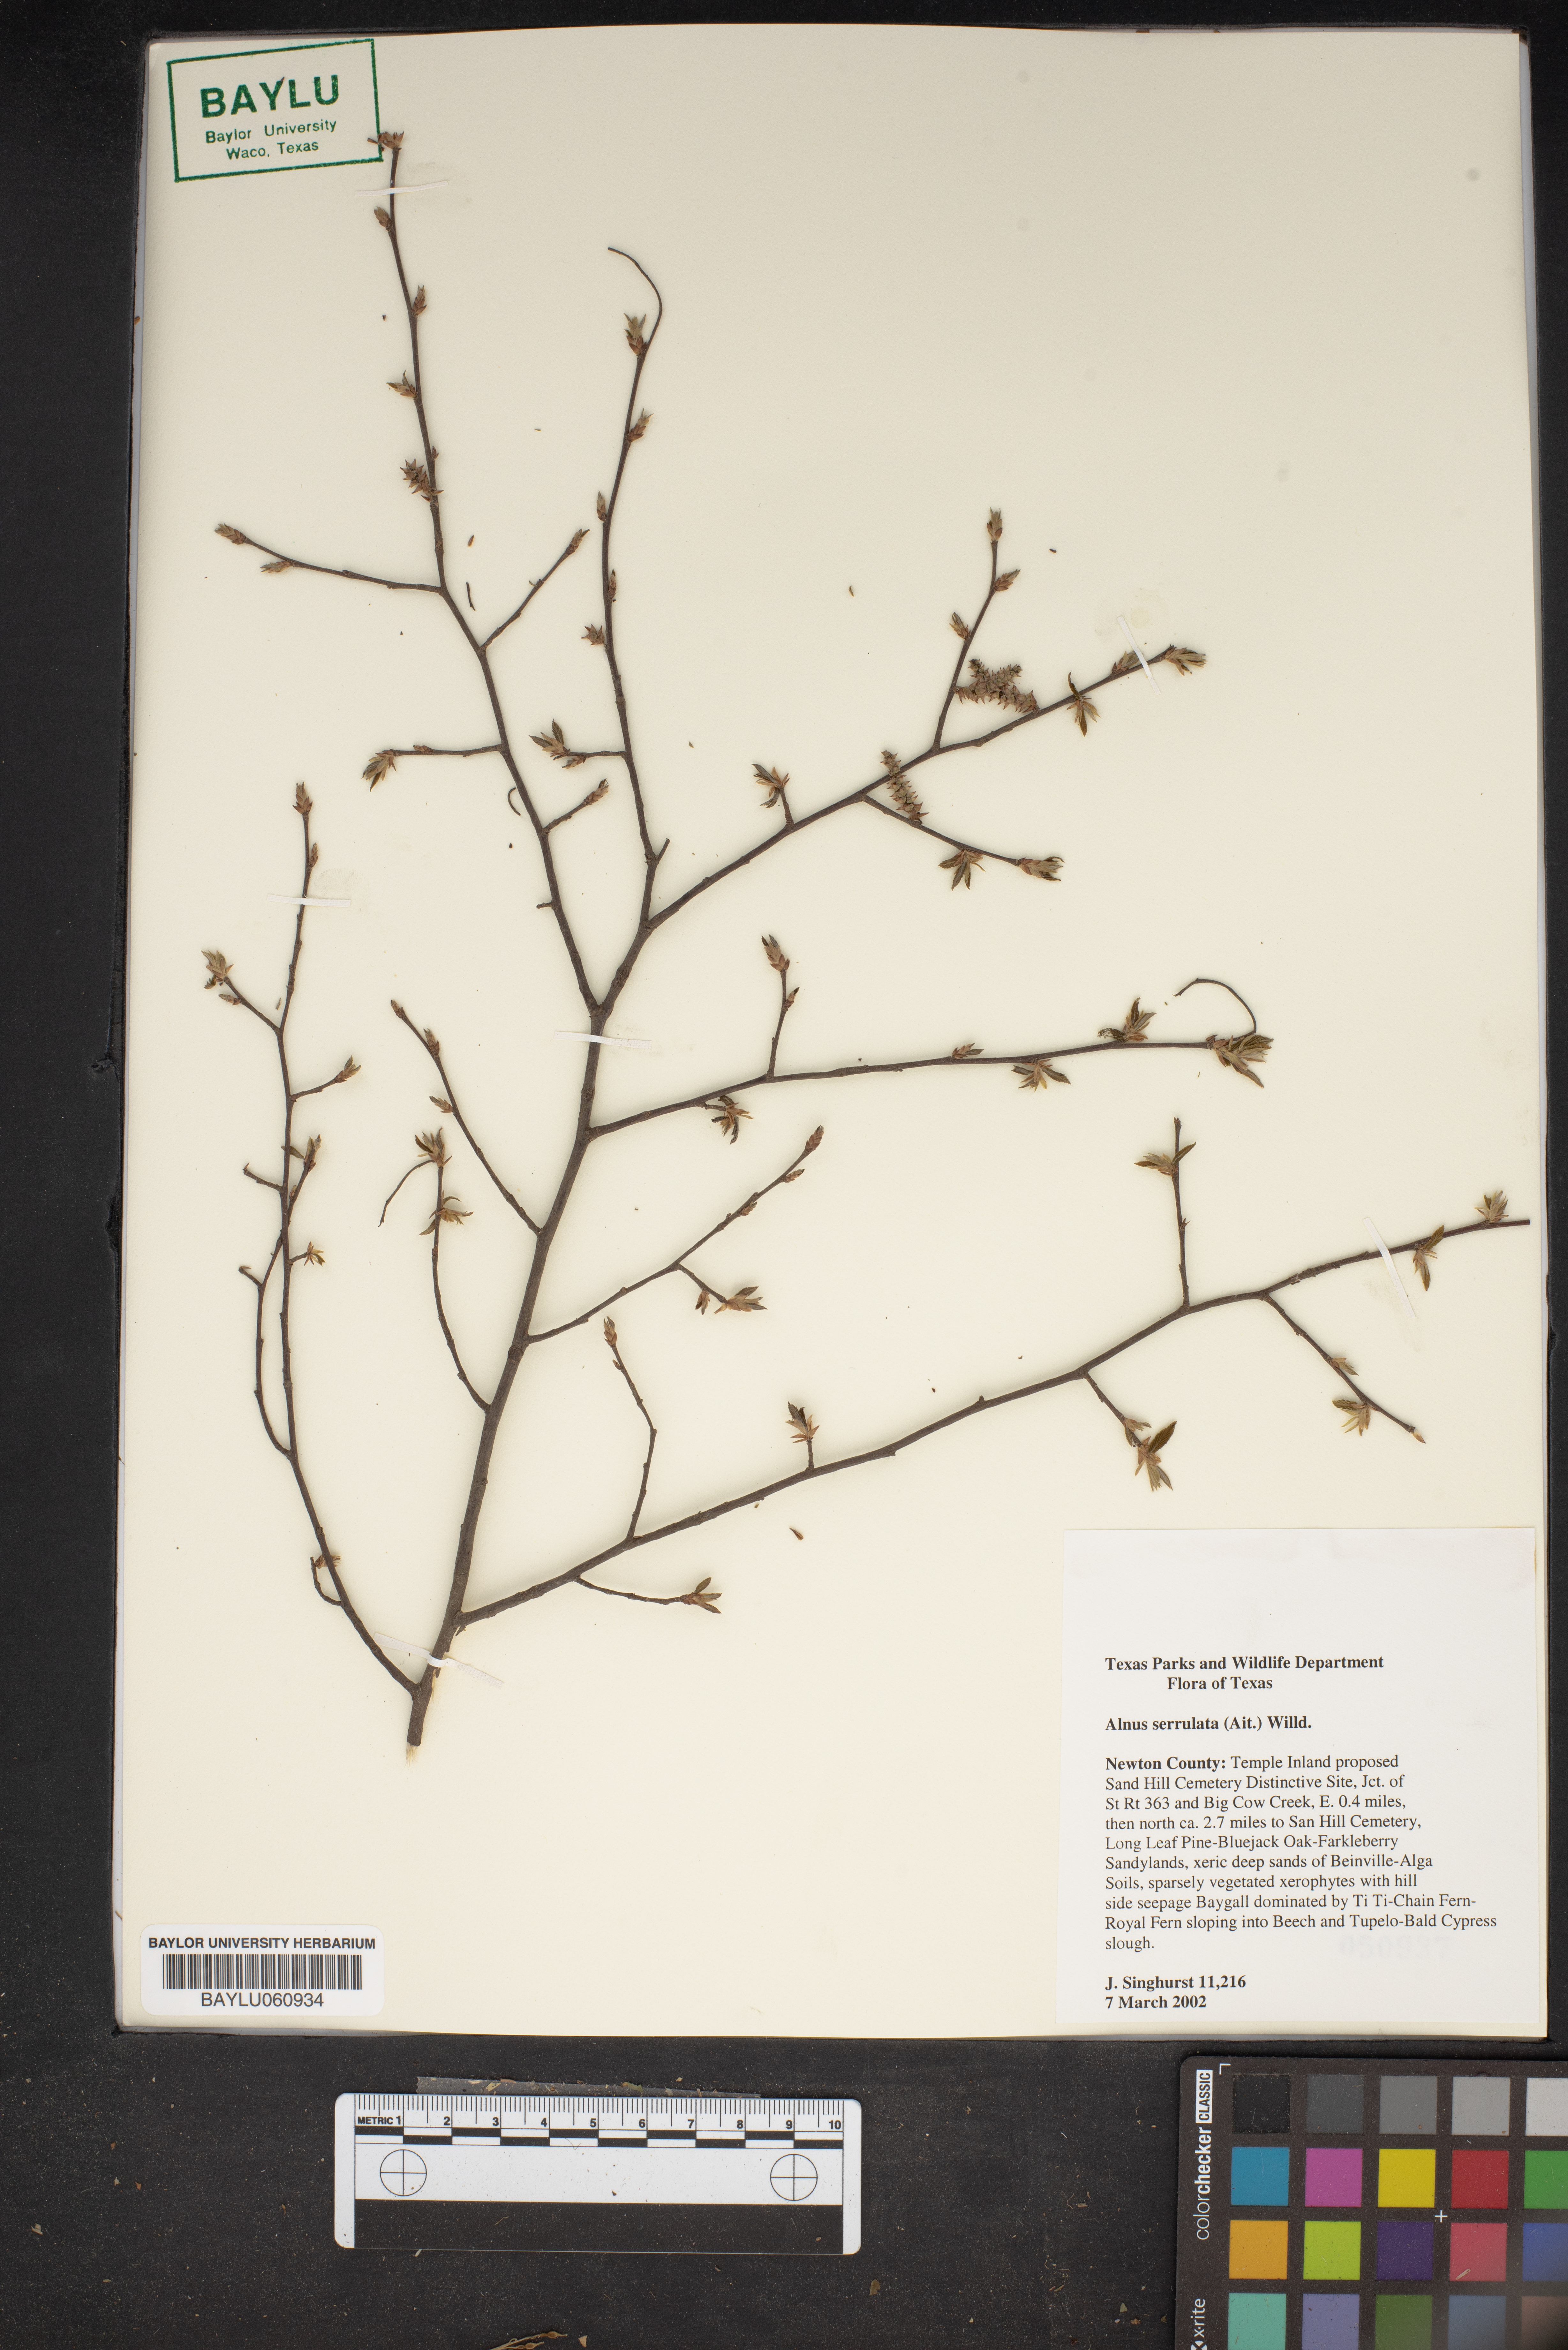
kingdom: Plantae
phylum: Tracheophyta
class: Magnoliopsida
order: Fagales
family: Betulaceae
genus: Alnus
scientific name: Alnus serrulata
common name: Hazel alder
